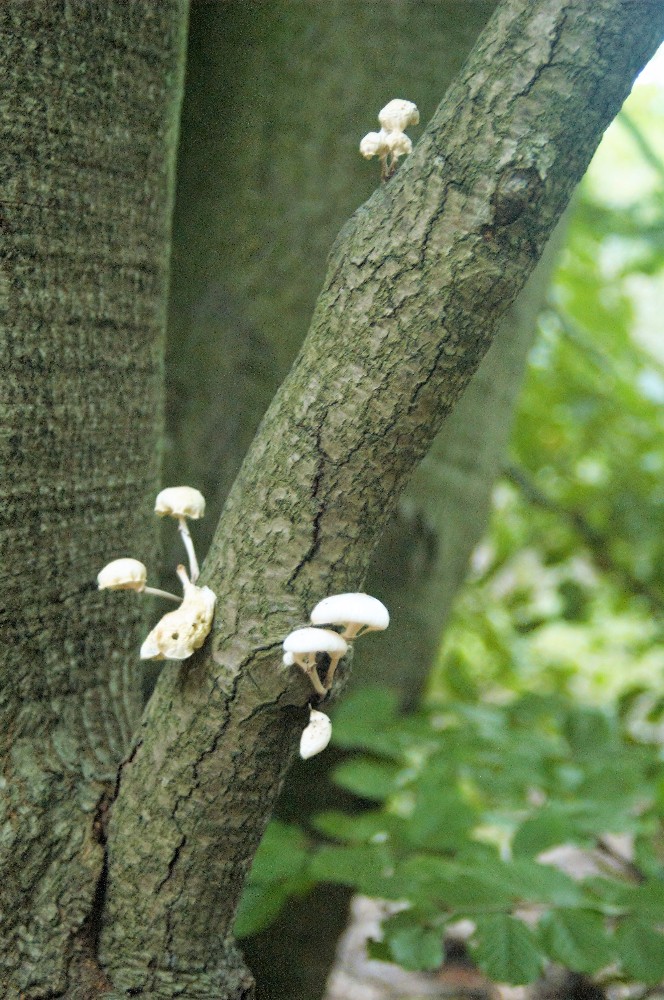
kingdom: Fungi
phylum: Basidiomycota
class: Agaricomycetes
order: Agaricales
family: Physalacriaceae
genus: Mucidula
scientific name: Mucidula mucida
